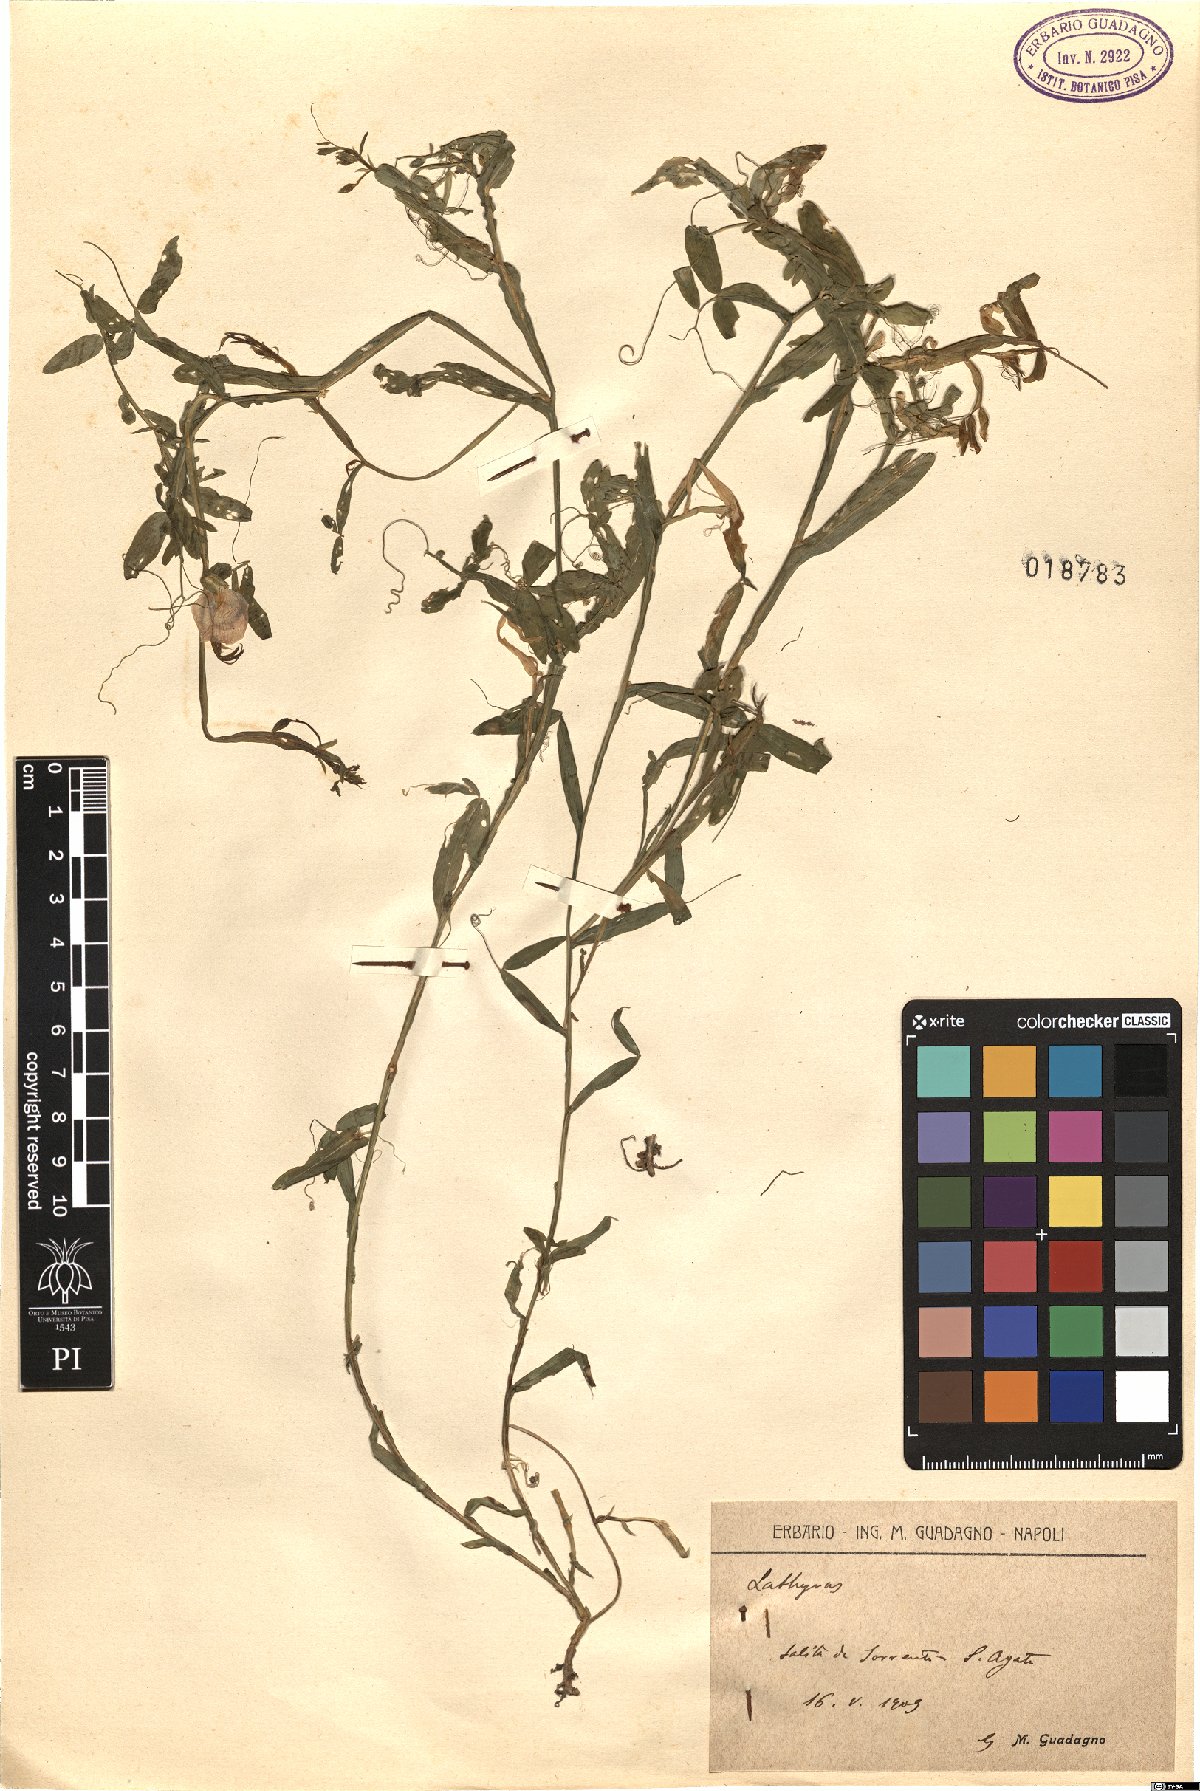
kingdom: Plantae
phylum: Tracheophyta
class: Magnoliopsida
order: Fabales
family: Fabaceae
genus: Lathyrus
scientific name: Lathyrus
